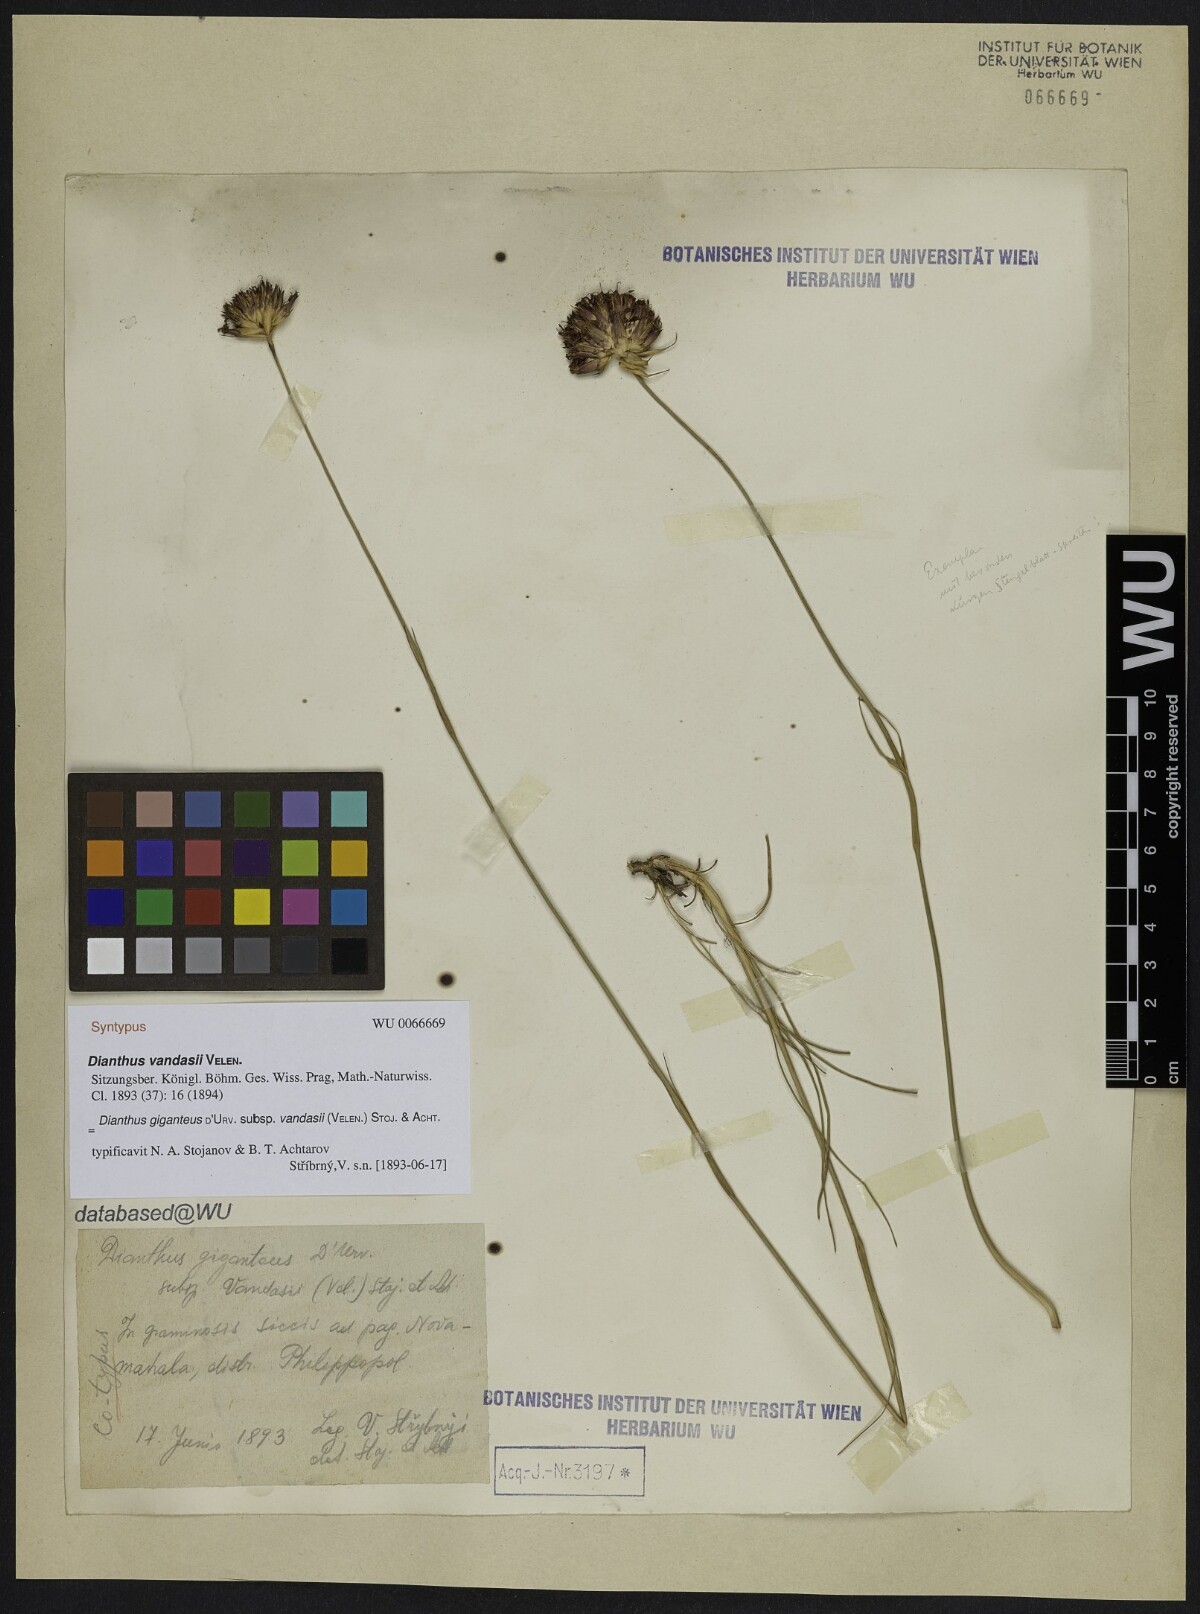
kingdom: Plantae
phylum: Tracheophyta
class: Magnoliopsida
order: Caryophyllales
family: Caryophyllaceae
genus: Dianthus
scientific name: Dianthus giganteus
